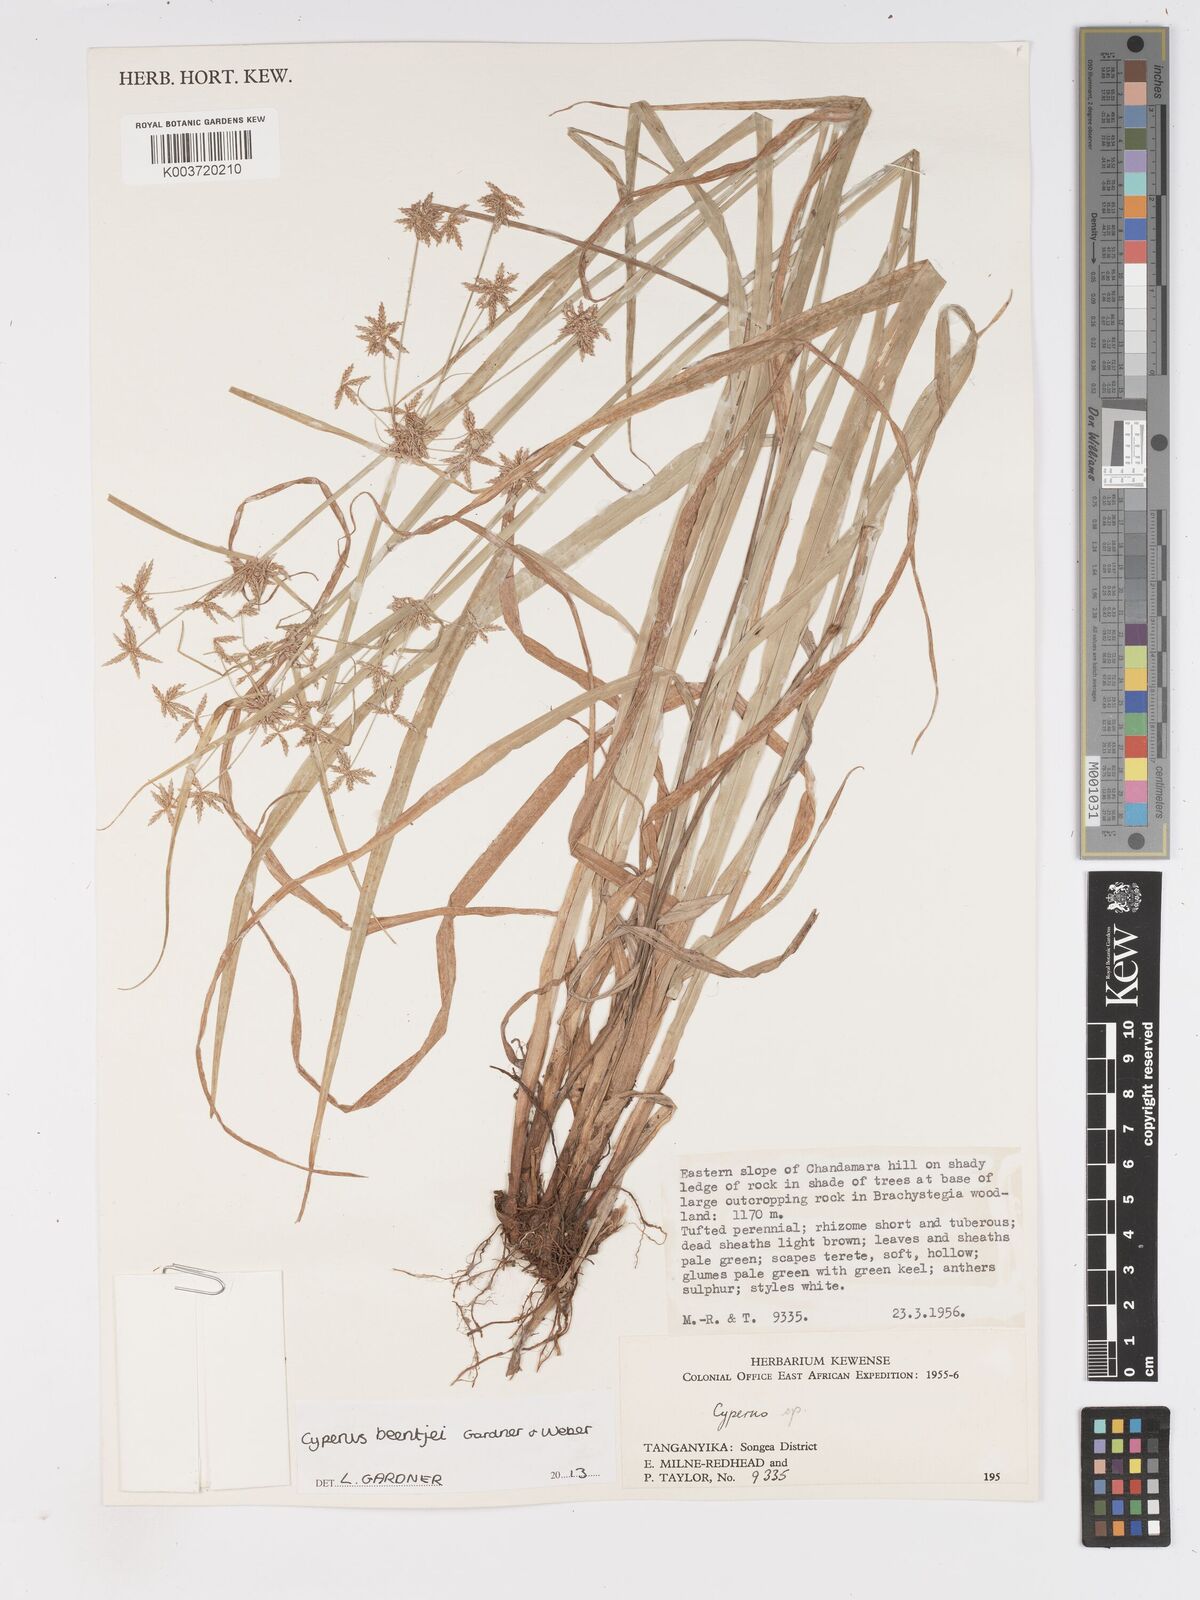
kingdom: Plantae
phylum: Tracheophyta
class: Liliopsida
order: Poales
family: Cyperaceae
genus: Cyperus
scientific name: Cyperus beentjei
